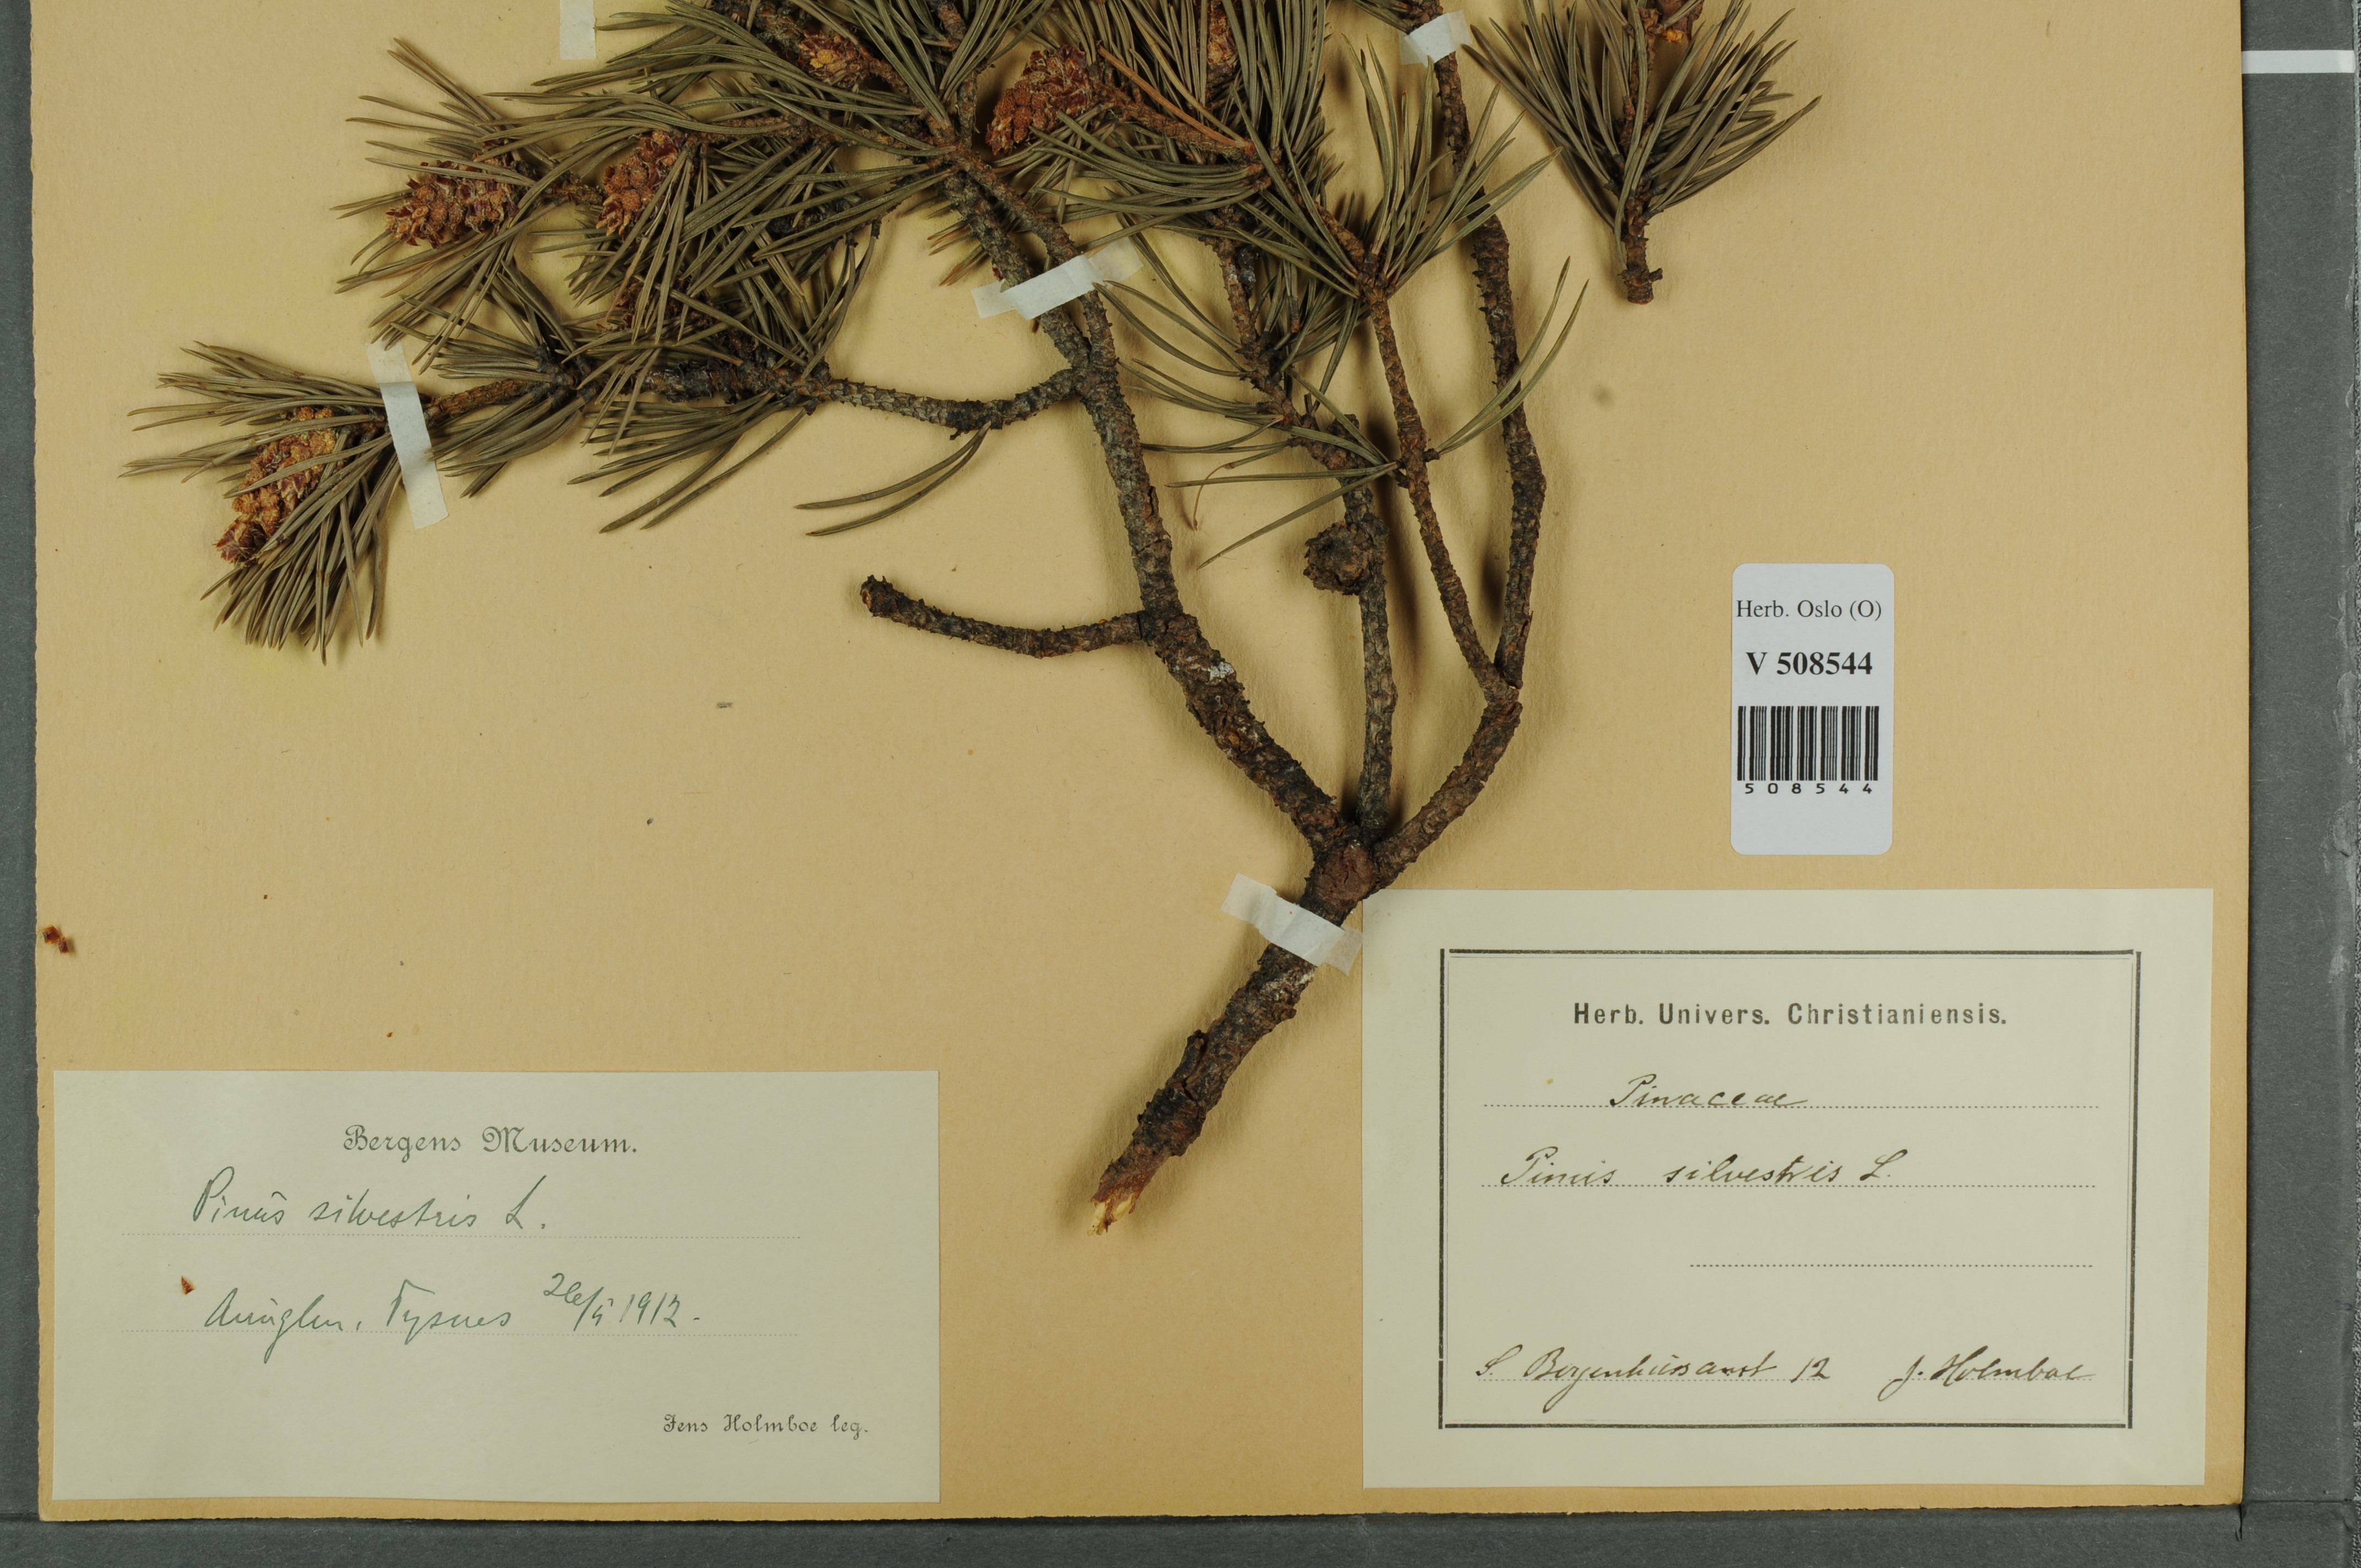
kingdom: Plantae
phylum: Tracheophyta
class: Pinopsida
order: Pinales
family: Pinaceae
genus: Pinus
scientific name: Pinus sylvestris
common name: Scots pine
